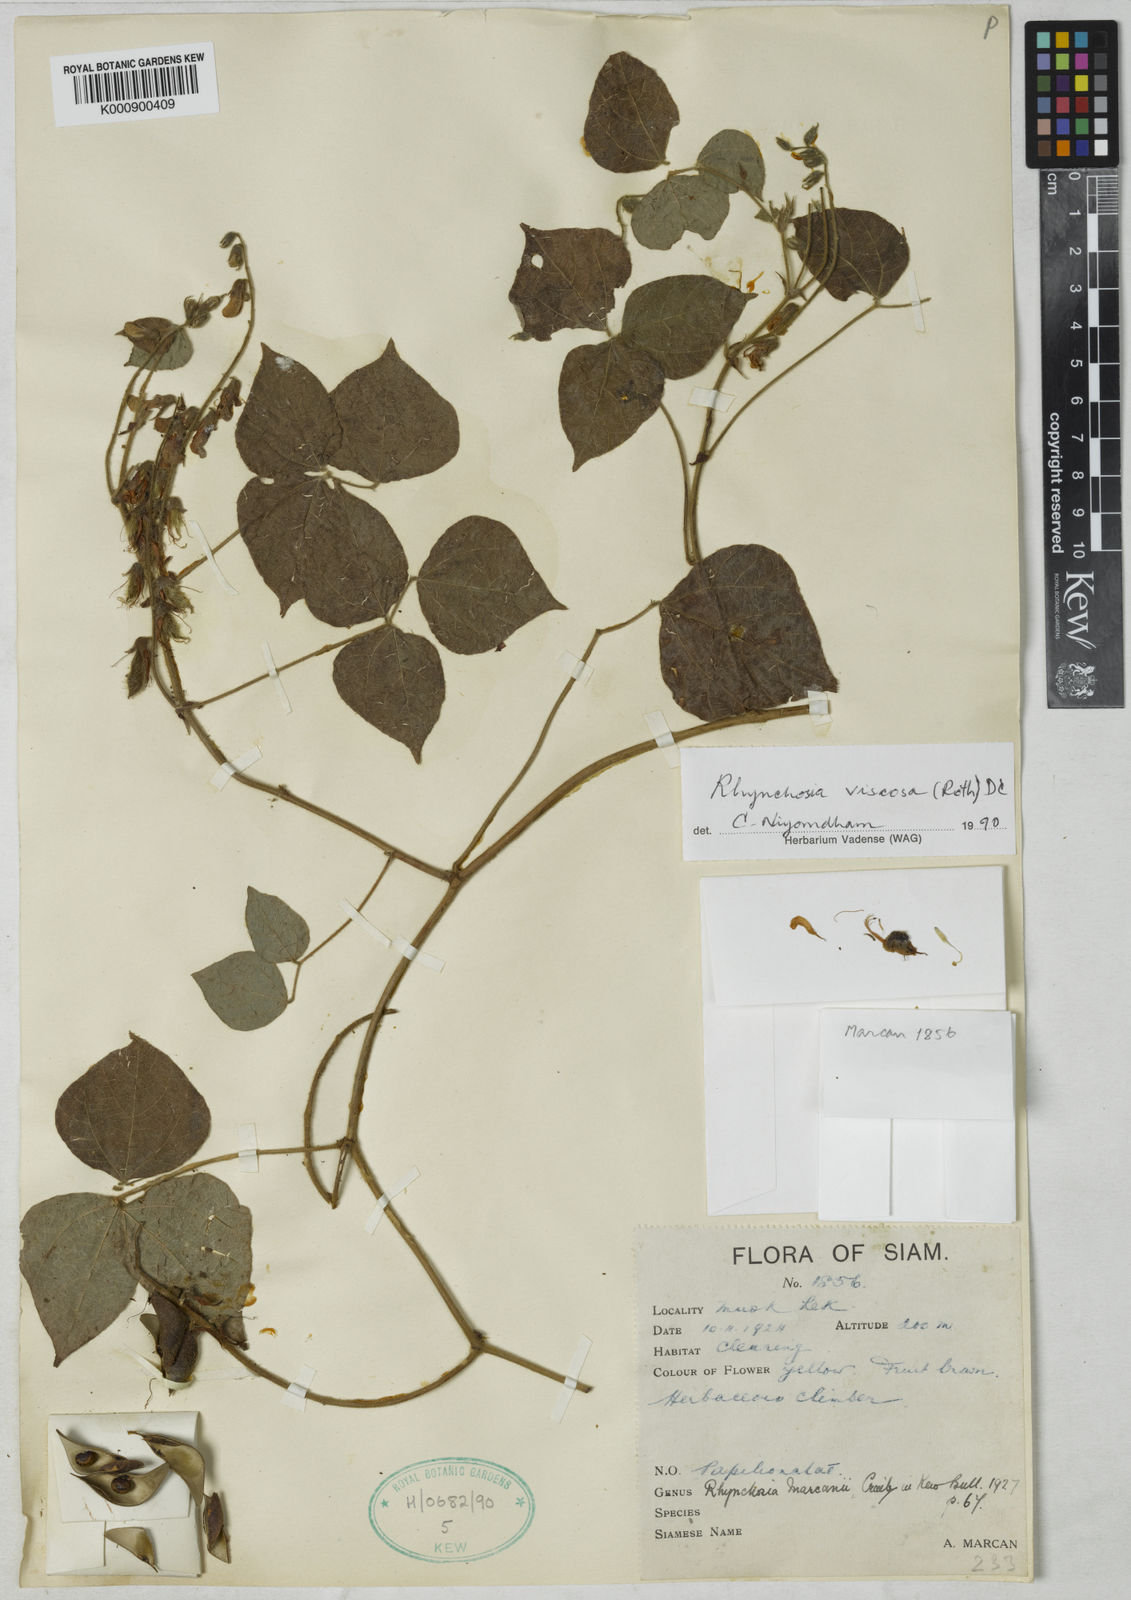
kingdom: Plantae
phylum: Tracheophyta
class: Magnoliopsida
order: Fabales
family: Fabaceae
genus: Rhynchosia
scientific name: Rhynchosia viscosa
